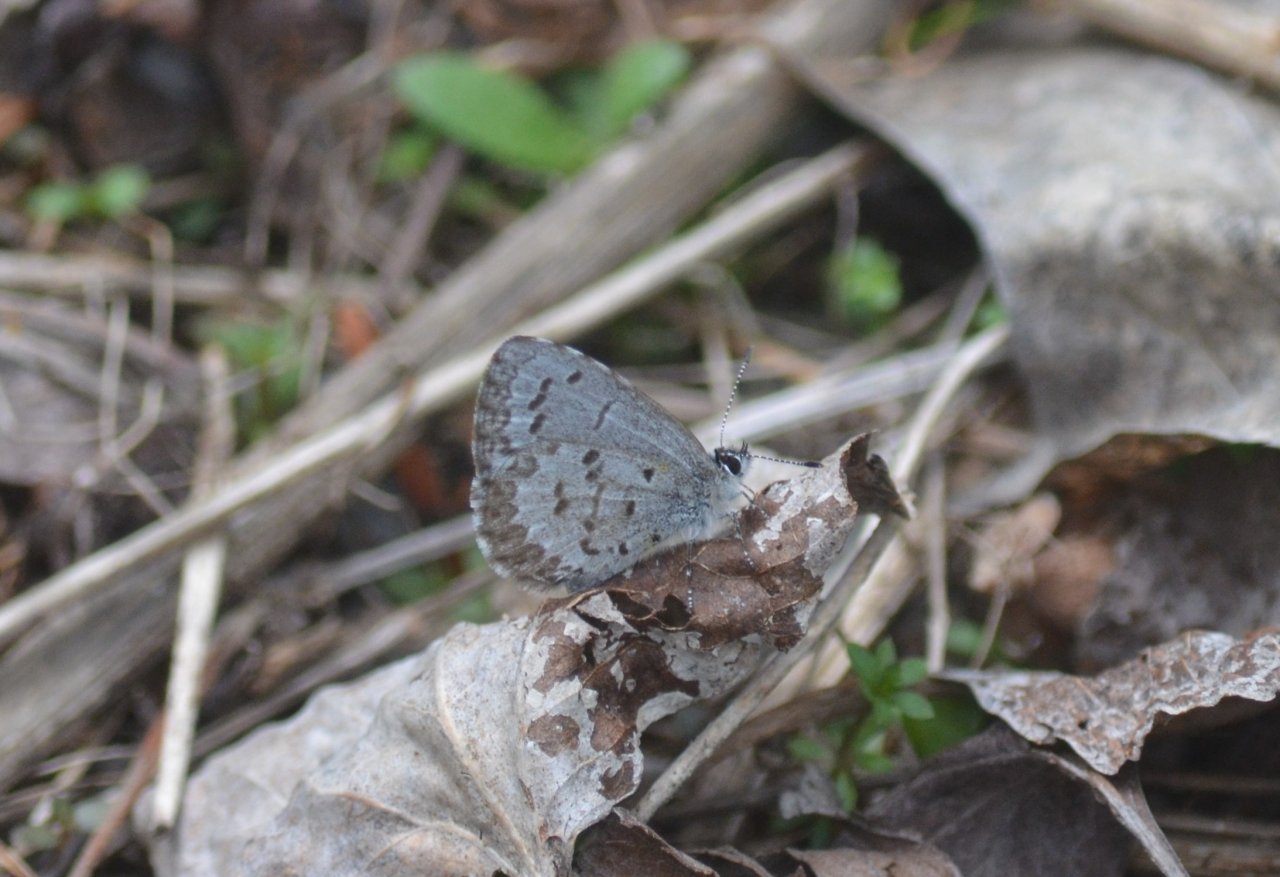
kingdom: Animalia
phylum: Arthropoda
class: Insecta
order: Lepidoptera
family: Lycaenidae
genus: Celastrina
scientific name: Celastrina lucia
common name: Northern Spring Azure
